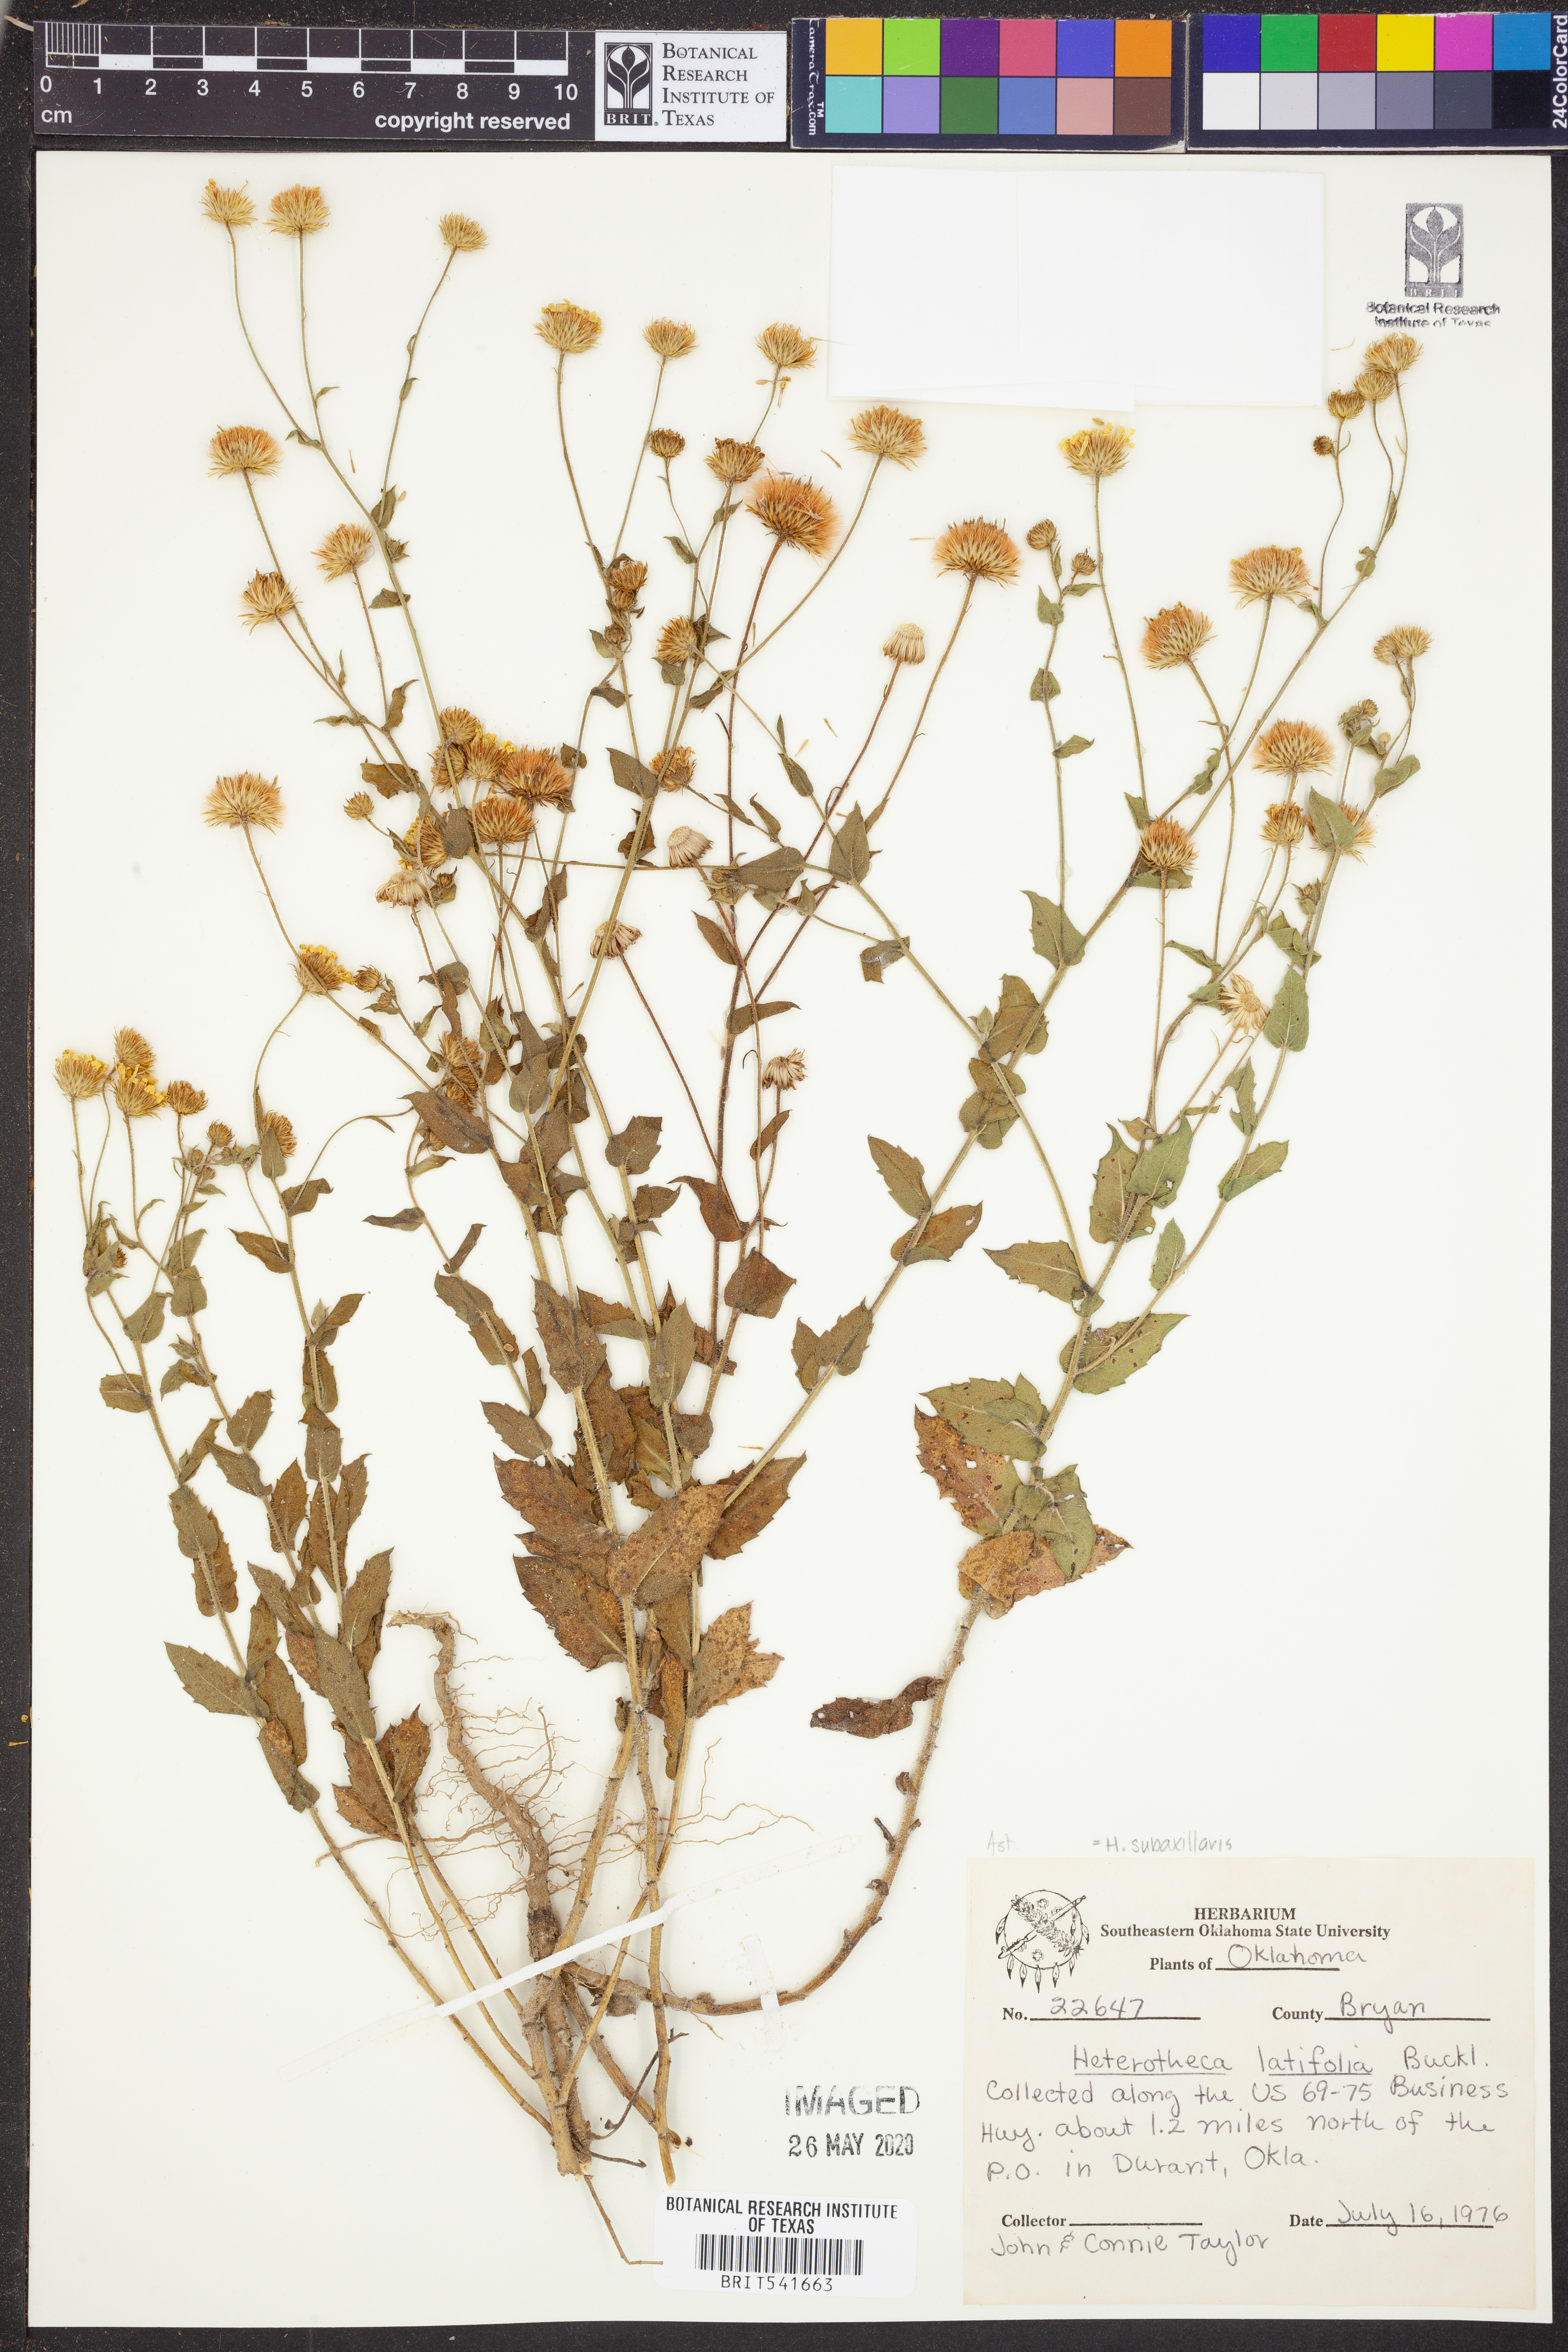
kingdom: Plantae
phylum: Tracheophyta
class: Magnoliopsida
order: Asterales
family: Asteraceae
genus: Heterotheca
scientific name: Heterotheca subaxillaris
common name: Camphorweed
